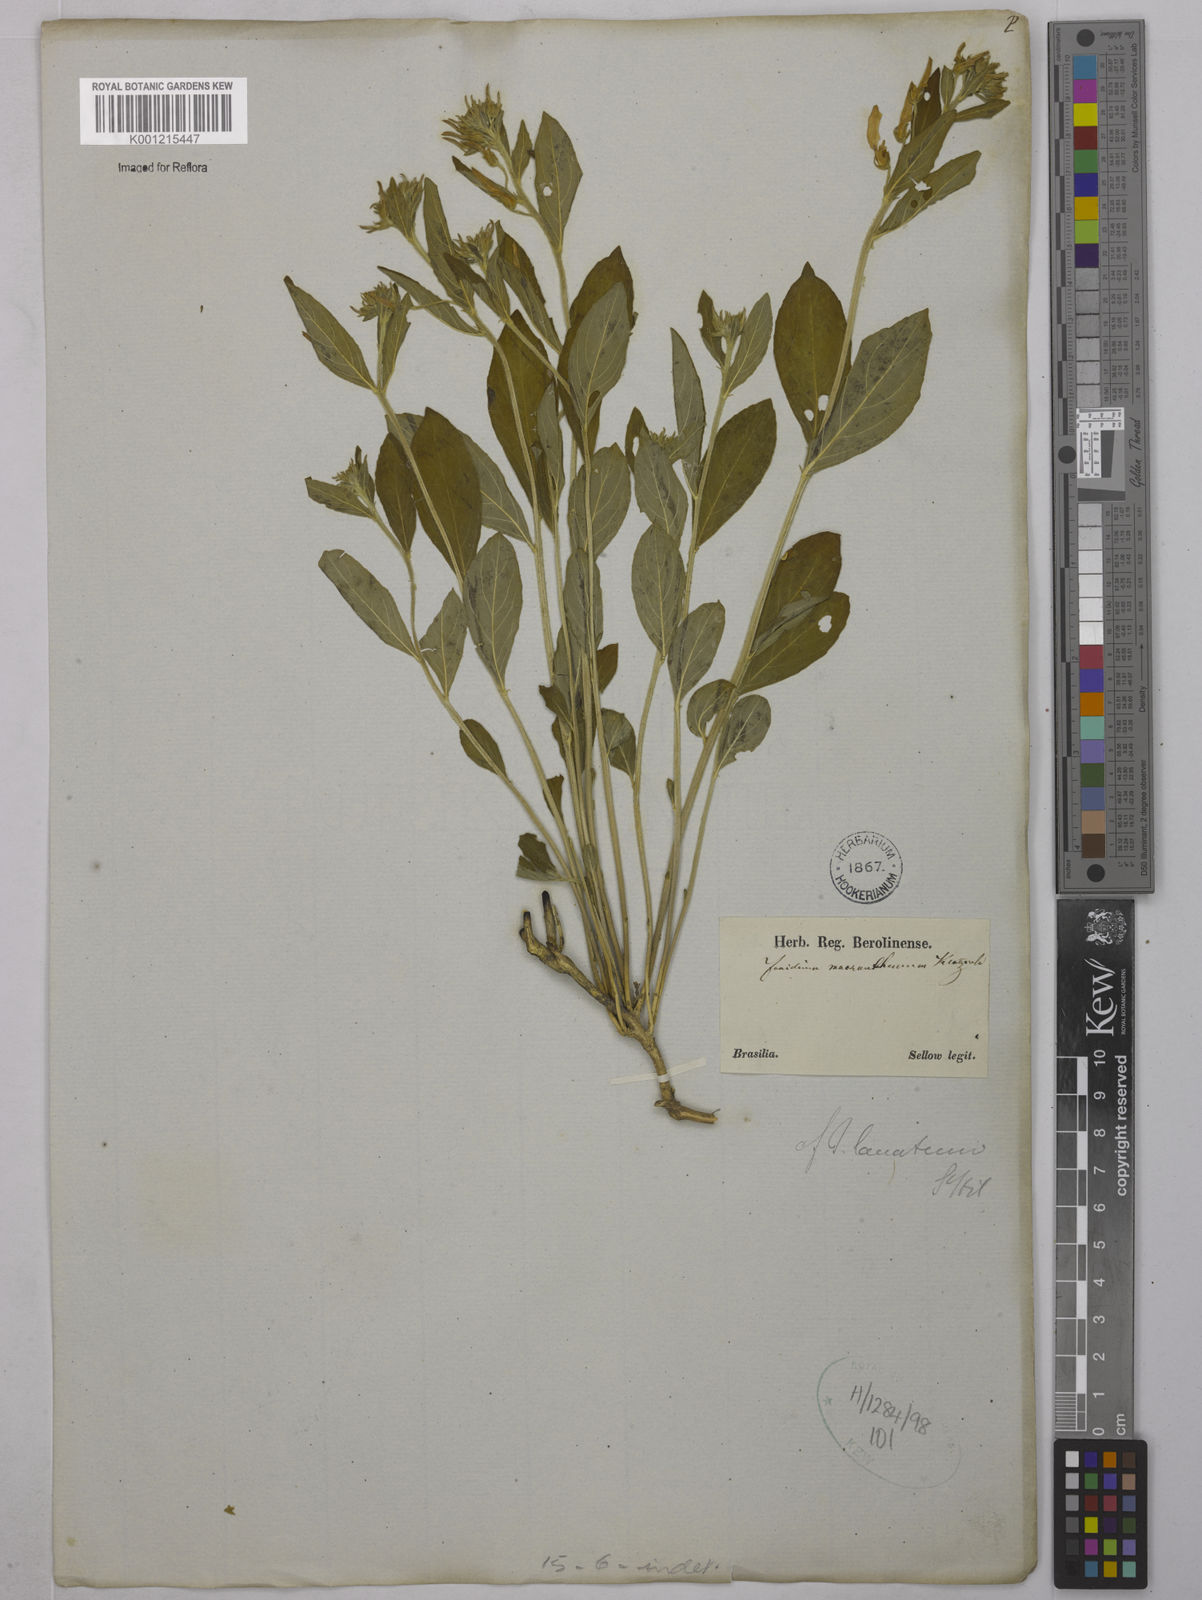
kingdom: Plantae
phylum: Tracheophyta
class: Magnoliopsida
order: Malpighiales
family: Violaceae
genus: Hybanthus
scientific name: Hybanthus
